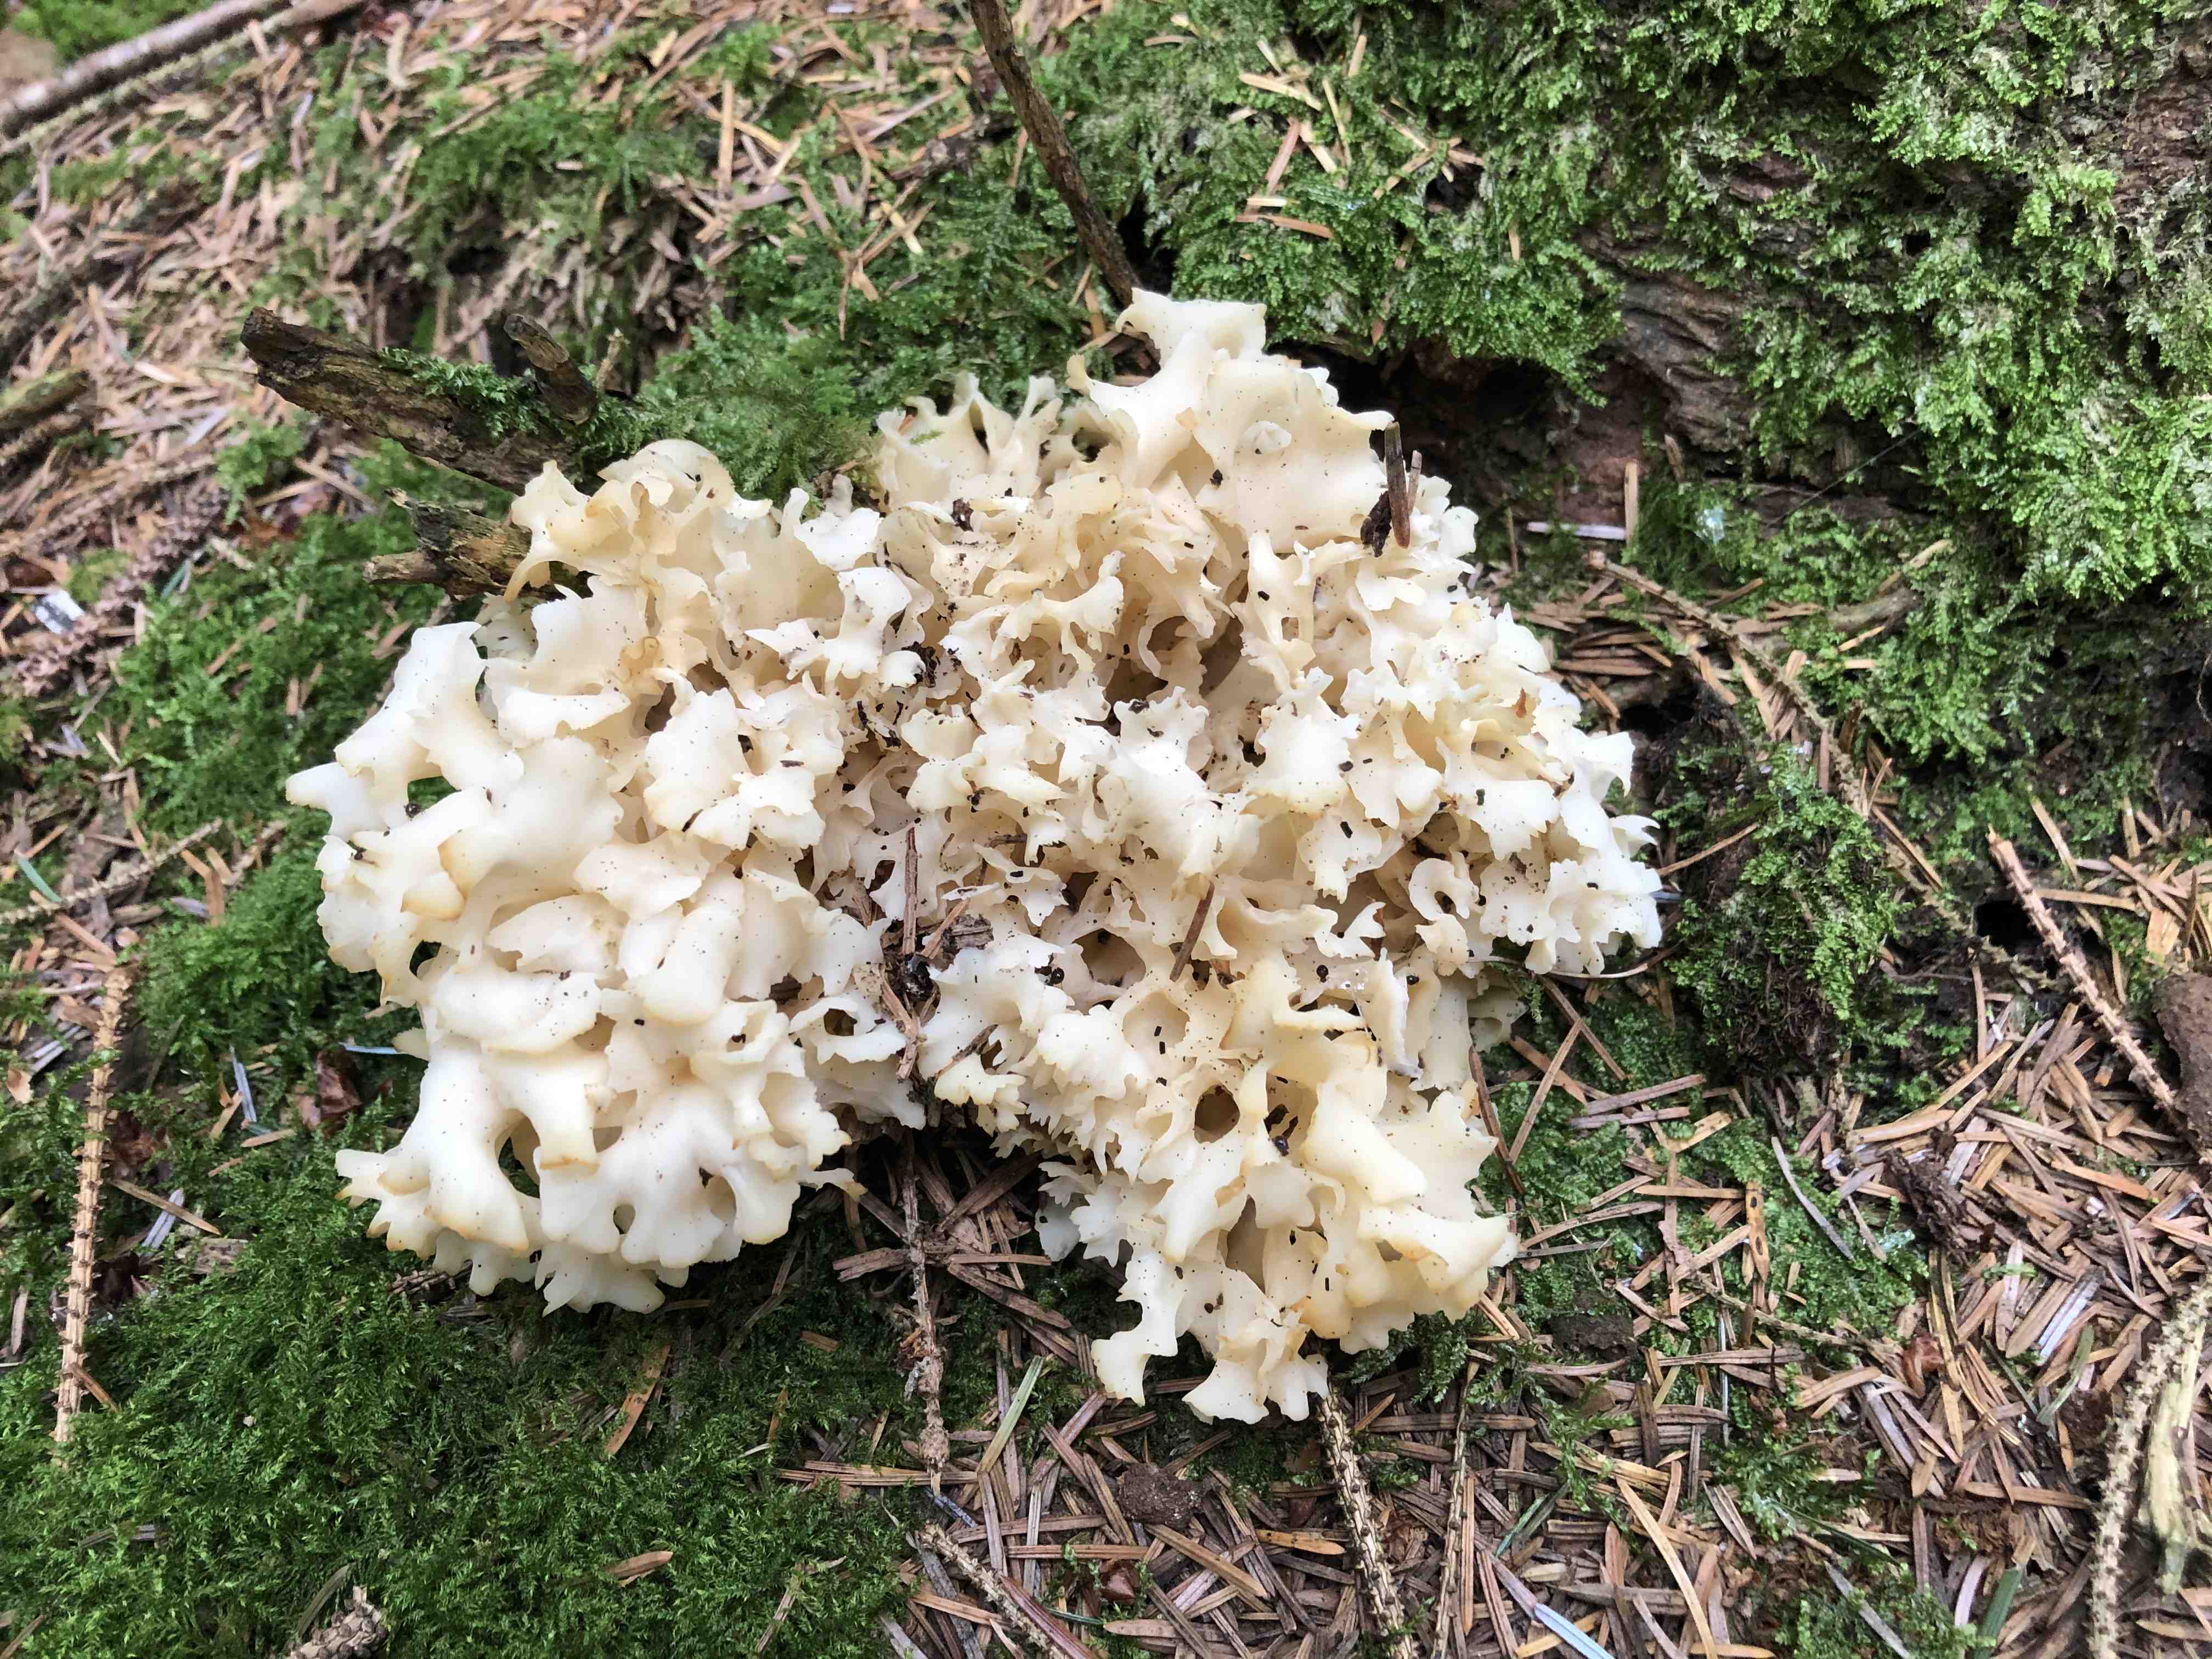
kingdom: Fungi
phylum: Basidiomycota
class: Agaricomycetes
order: Polyporales
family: Sparassidaceae
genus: Sparassis
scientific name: Sparassis crispa
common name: kruset blomkålssvamp
